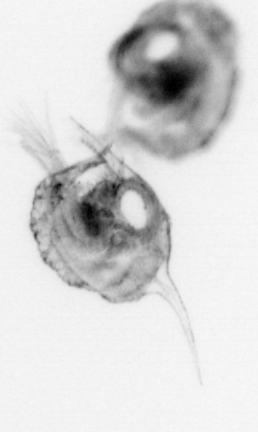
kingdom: Animalia
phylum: Arthropoda
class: Malacostraca
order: Decapoda
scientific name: Decapoda
